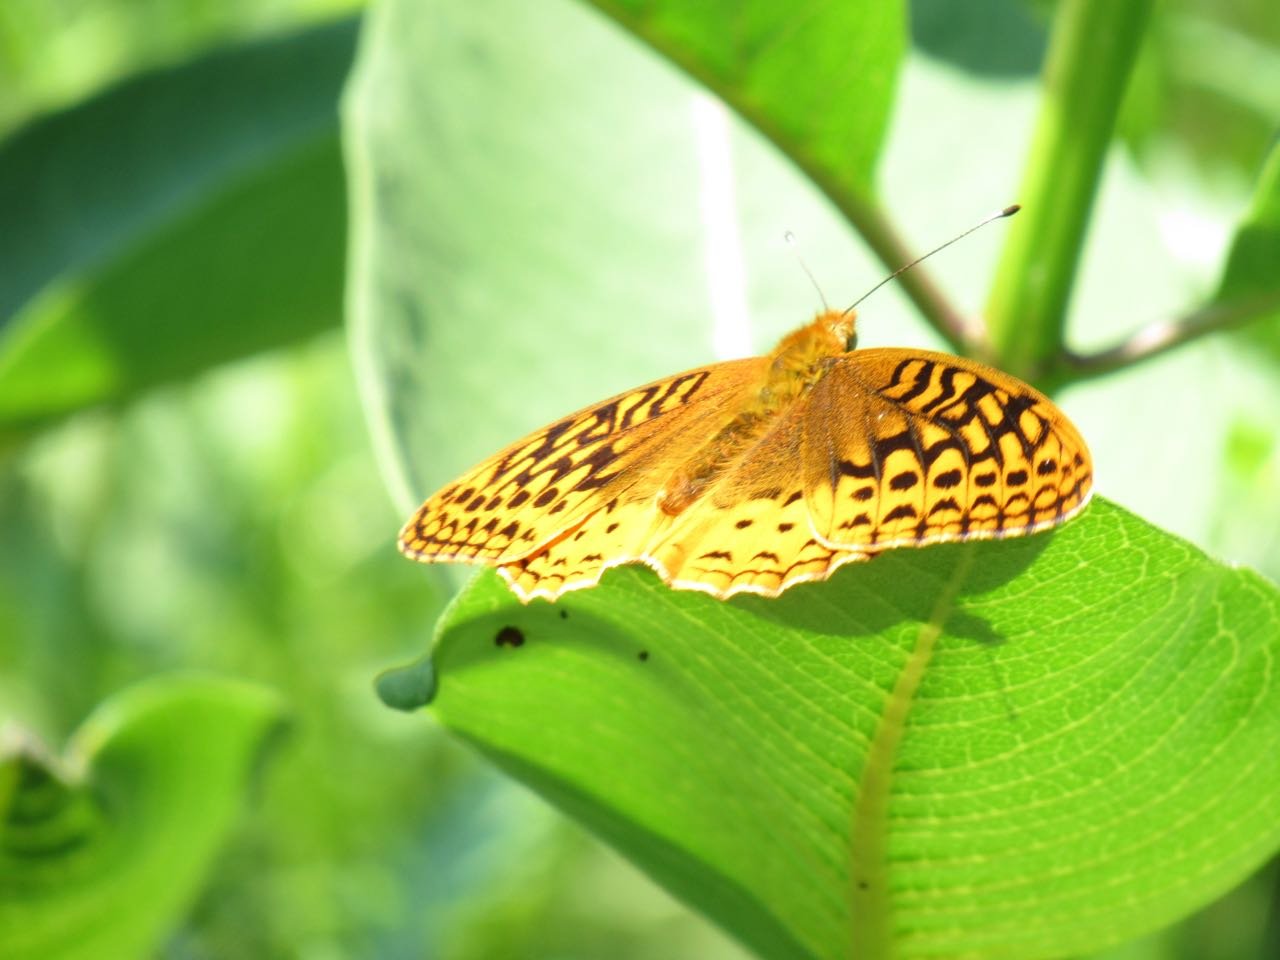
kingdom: Animalia
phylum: Arthropoda
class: Insecta
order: Lepidoptera
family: Nymphalidae
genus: Speyeria
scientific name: Speyeria cybele
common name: Great Spangled Fritillary
